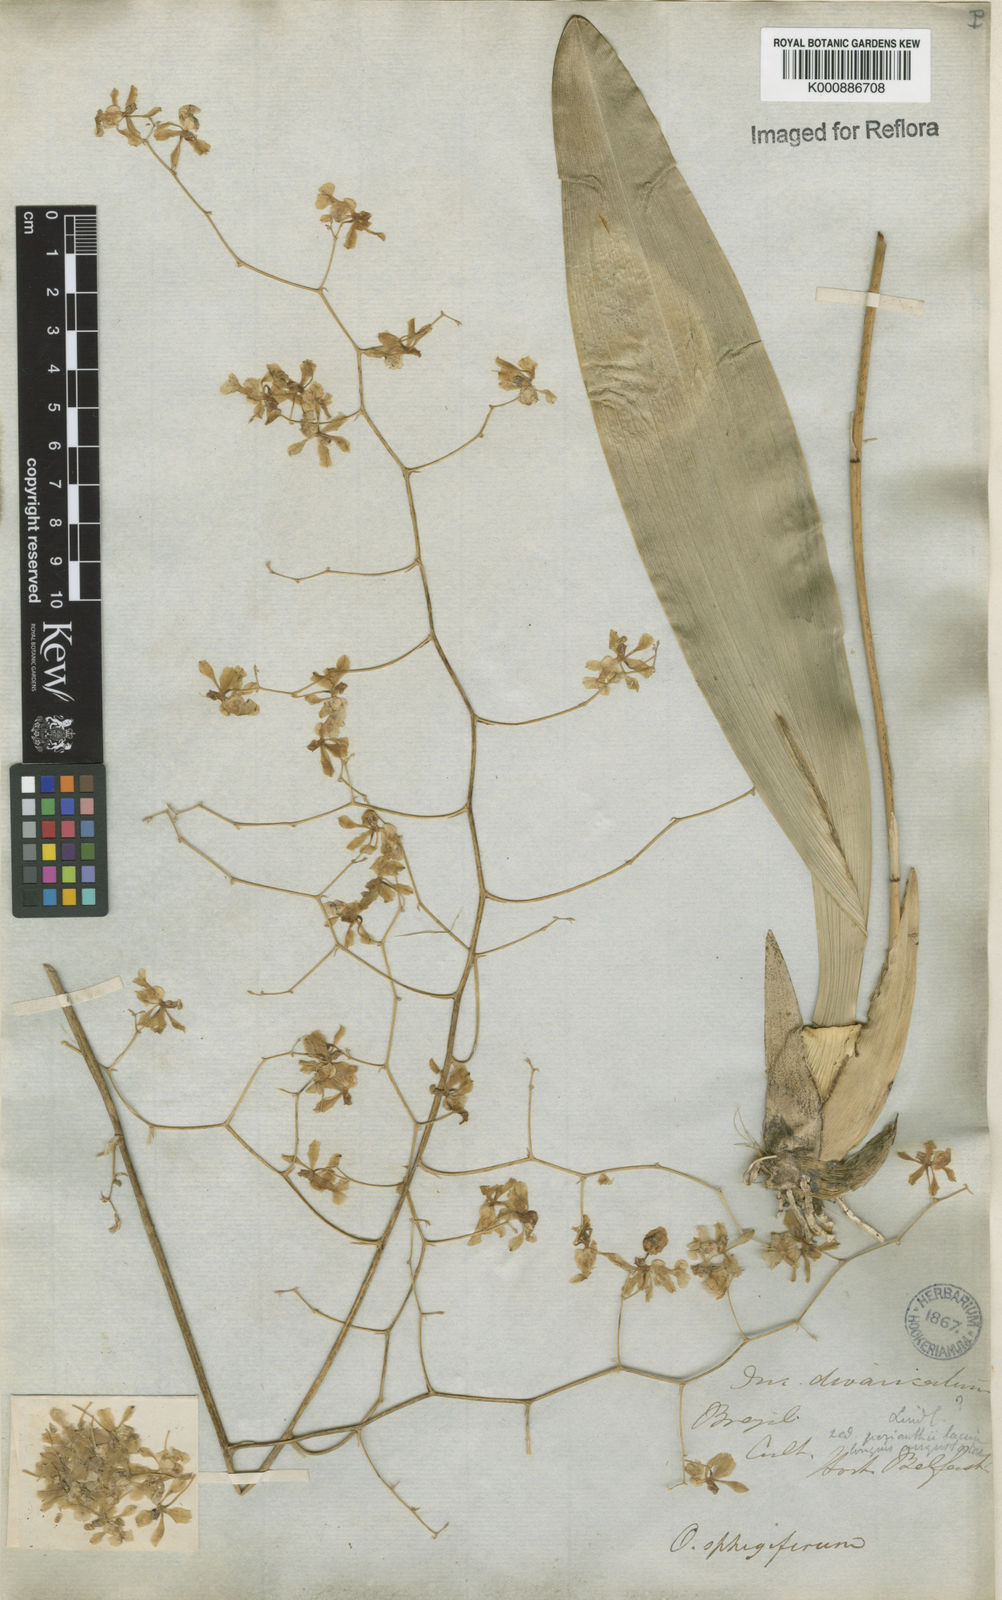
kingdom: Plantae
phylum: Tracheophyta
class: Liliopsida
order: Asparagales
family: Orchidaceae
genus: Grandiphyllum
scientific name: Grandiphyllum divaricatum
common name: Mule-ear orchid
